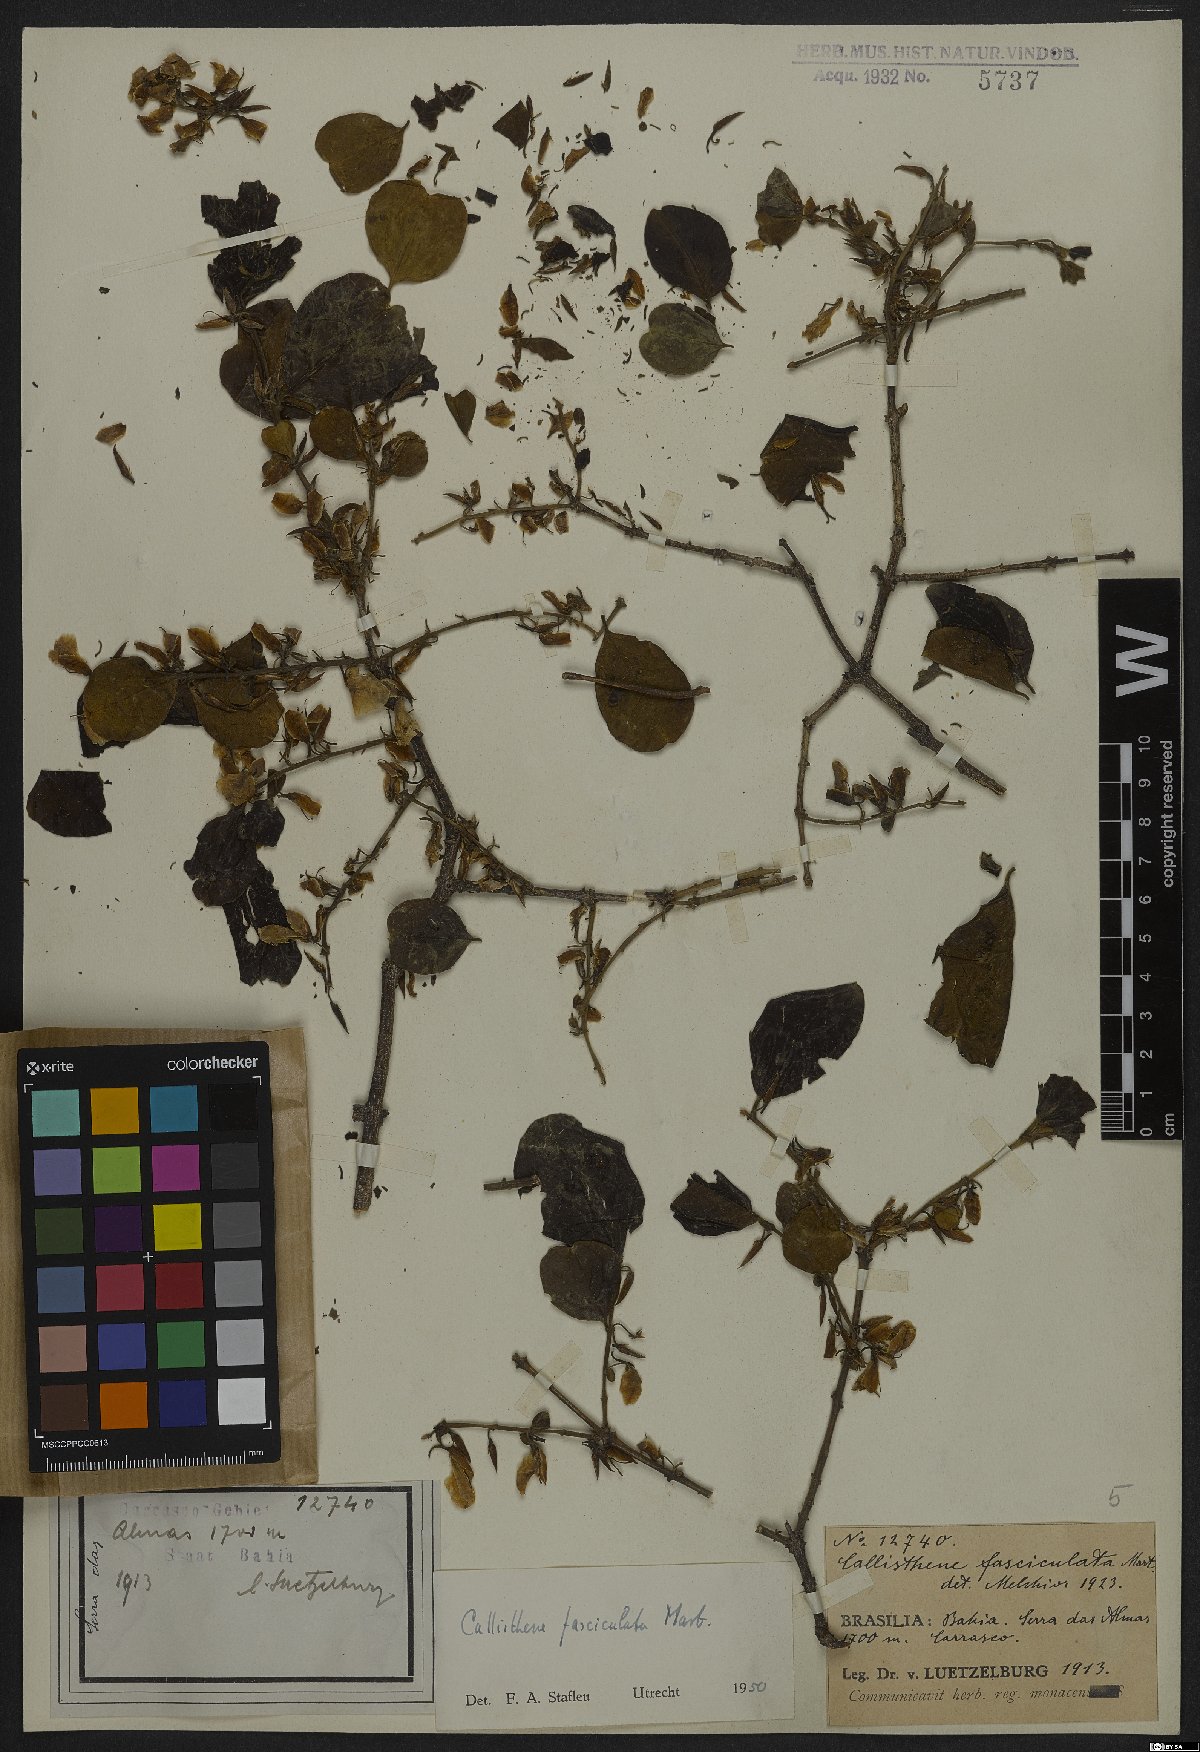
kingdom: Plantae
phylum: Tracheophyta
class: Magnoliopsida
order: Myrtales
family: Vochysiaceae
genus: Callisthene
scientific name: Callisthene fasciculata
